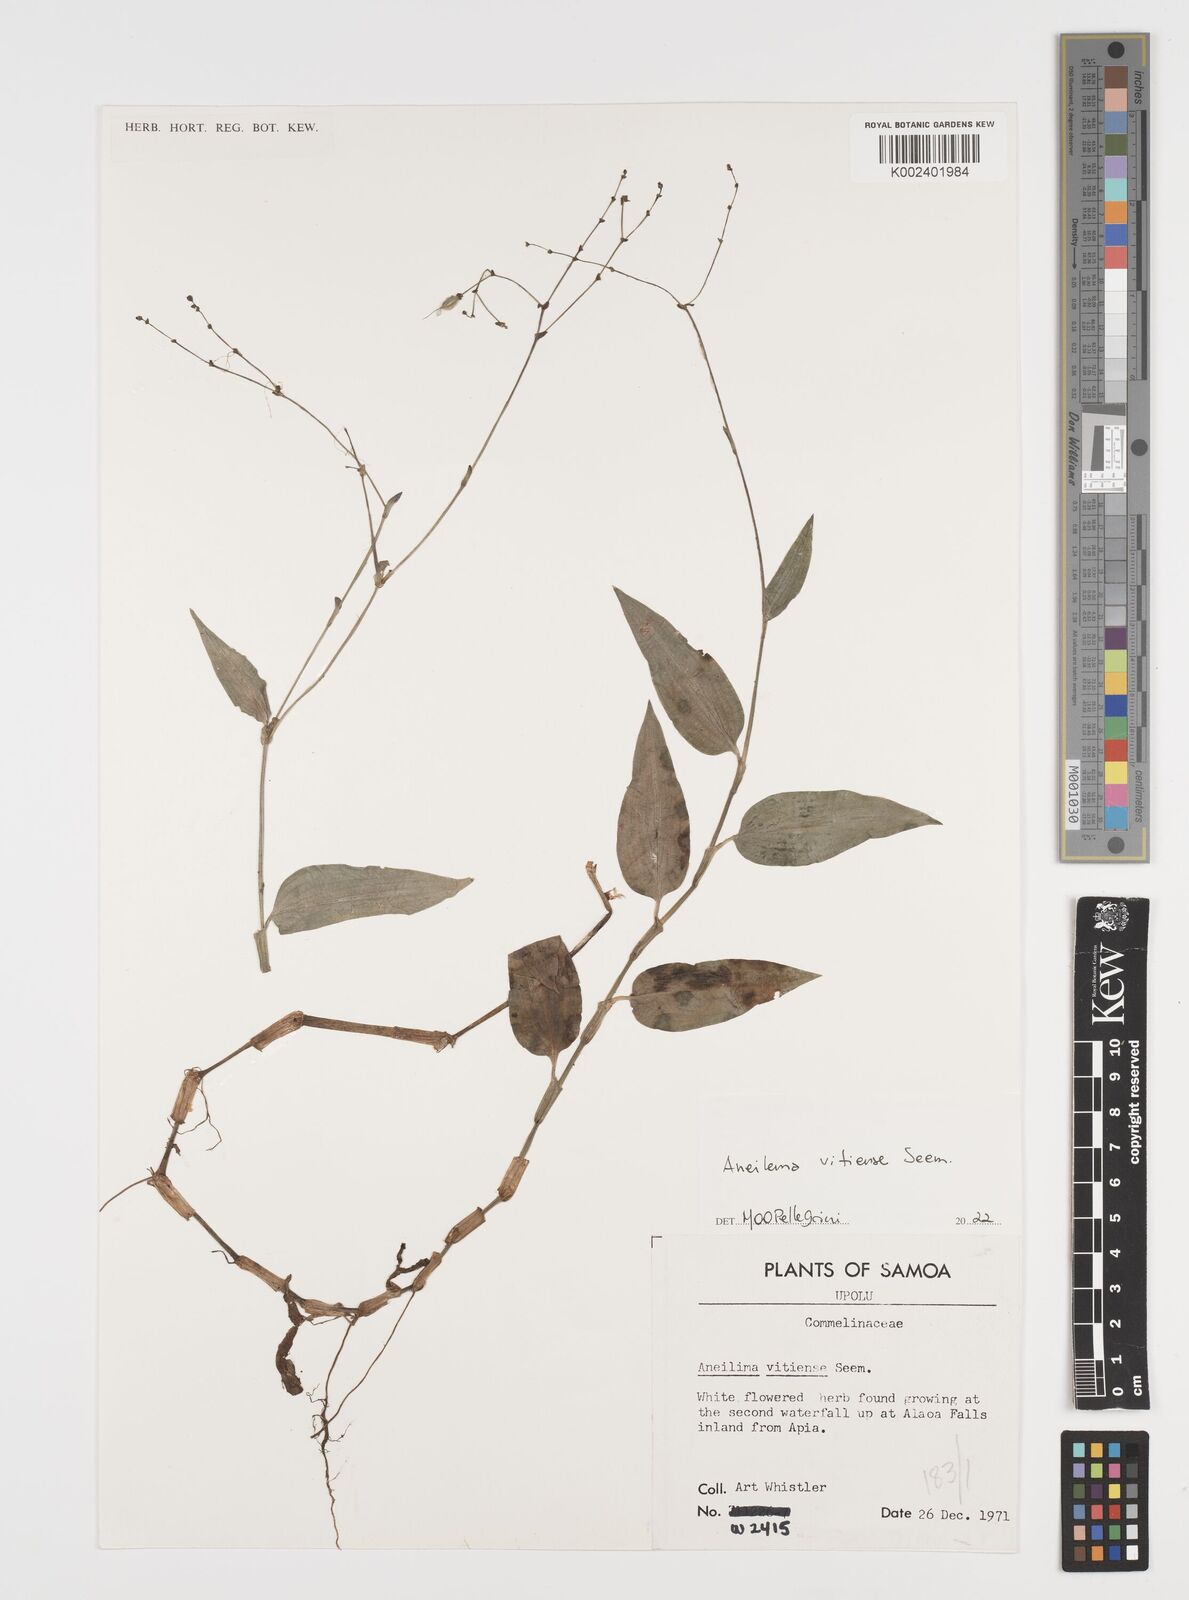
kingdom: Plantae
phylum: Tracheophyta
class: Liliopsida
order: Commelinales
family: Commelinaceae
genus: Rhopalephora
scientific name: Rhopalephora vitiensis
